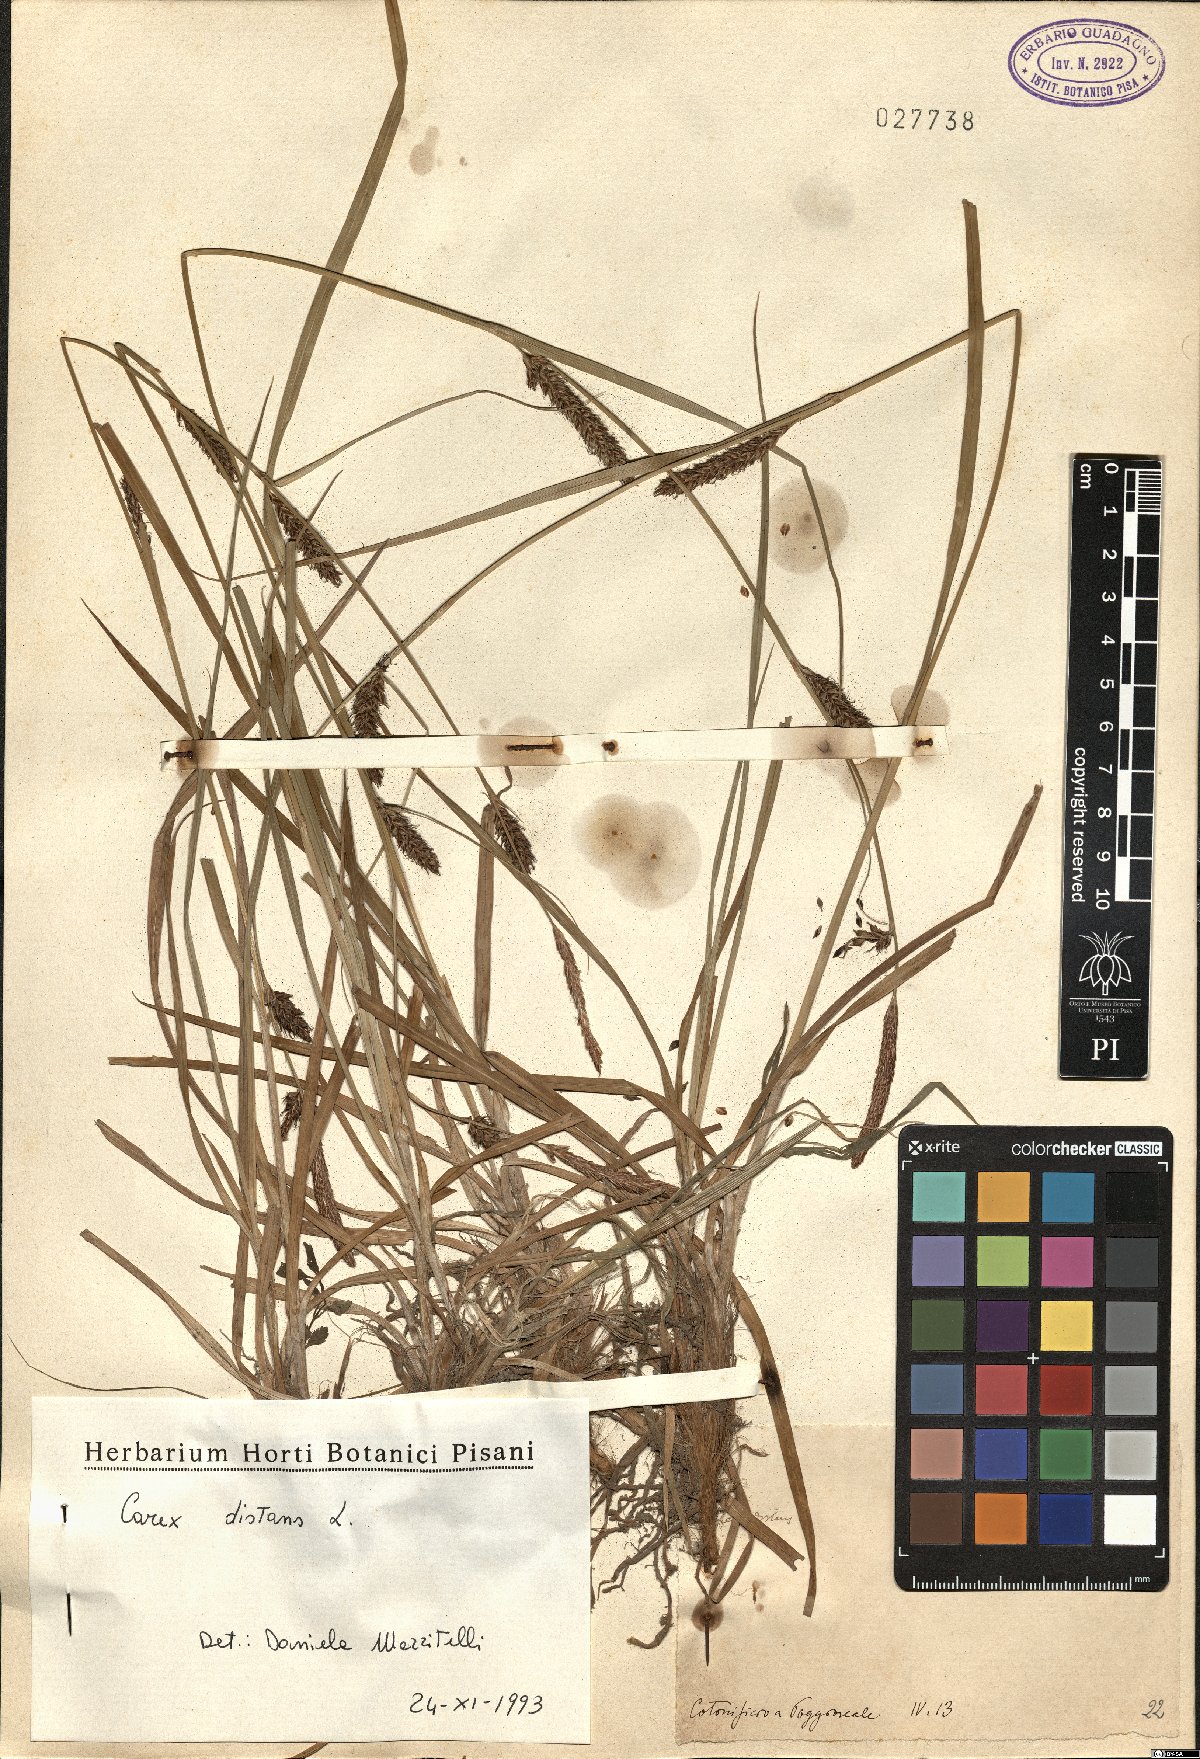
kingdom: Plantae
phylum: Tracheophyta
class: Liliopsida
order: Poales
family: Cyperaceae
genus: Carex
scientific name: Carex distans
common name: Distant sedge
